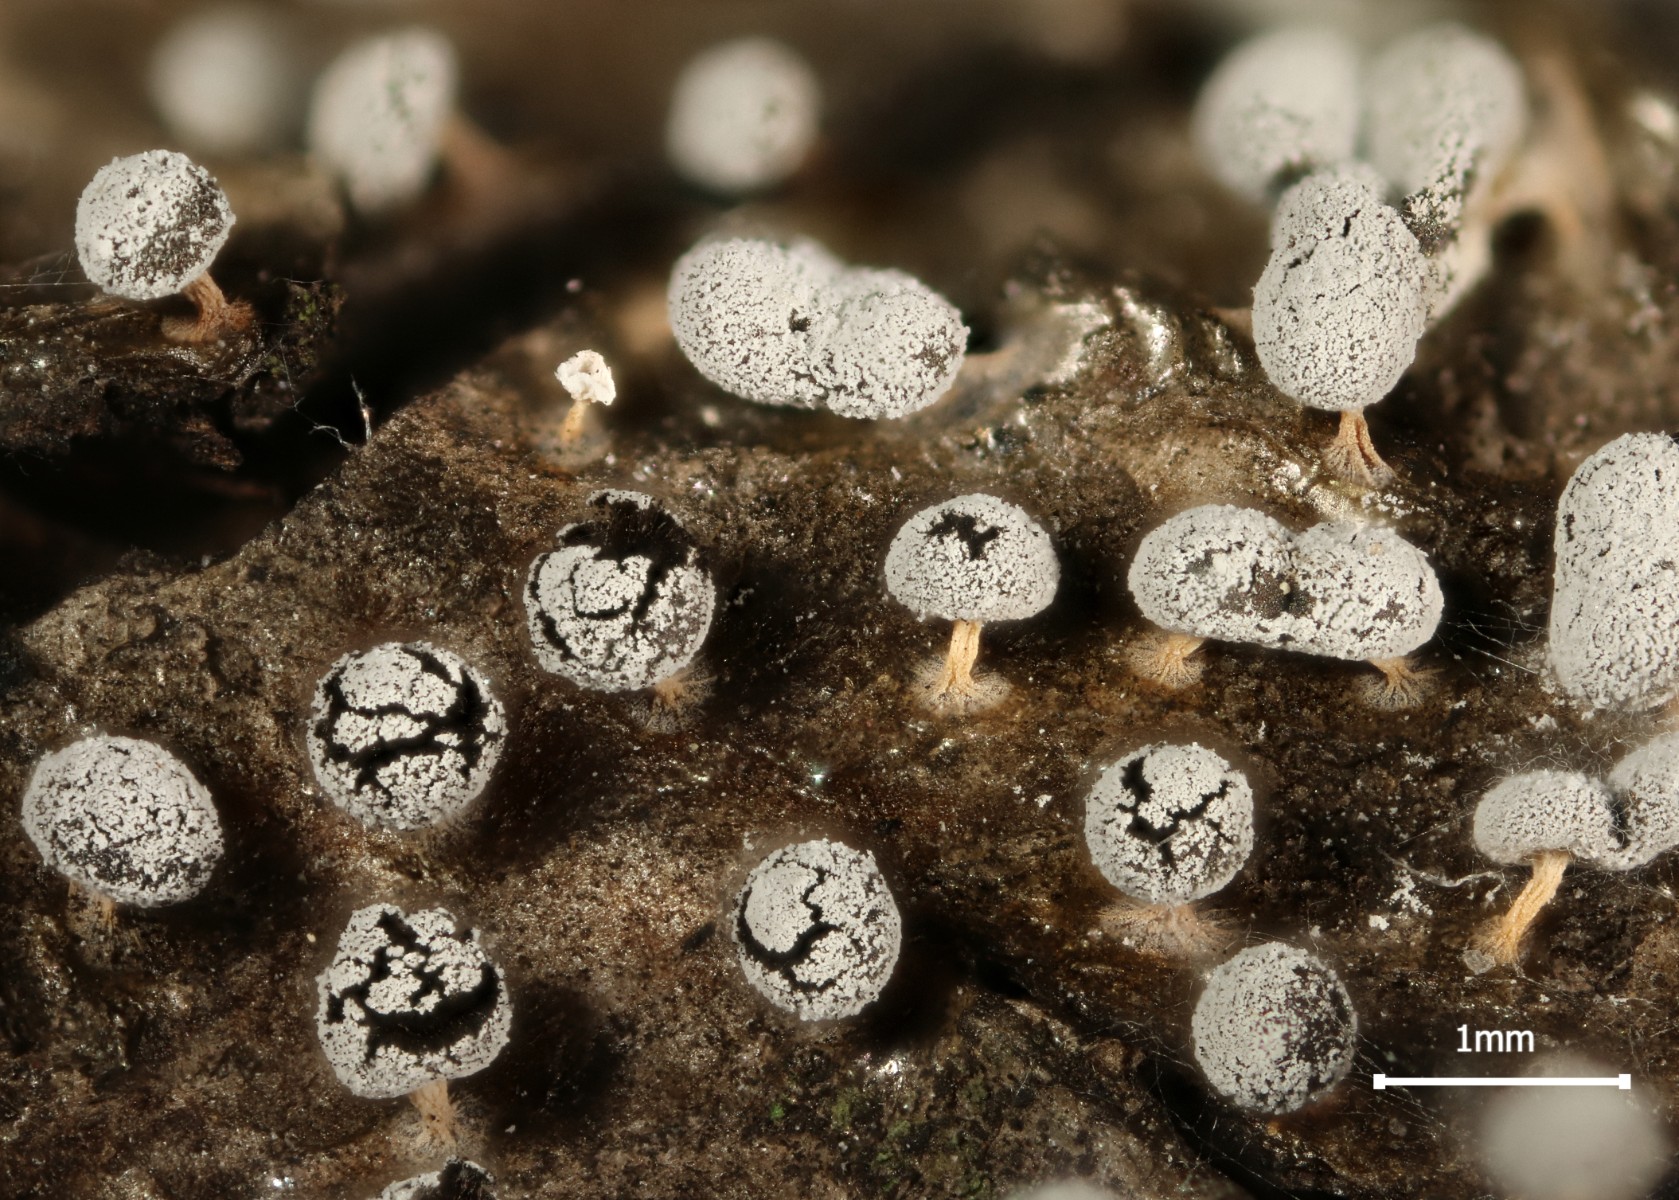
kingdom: Protozoa
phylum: Mycetozoa
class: Myxomycetes
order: Physarales
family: Didymiaceae
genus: Didymium
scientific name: Didymium squamulosum
